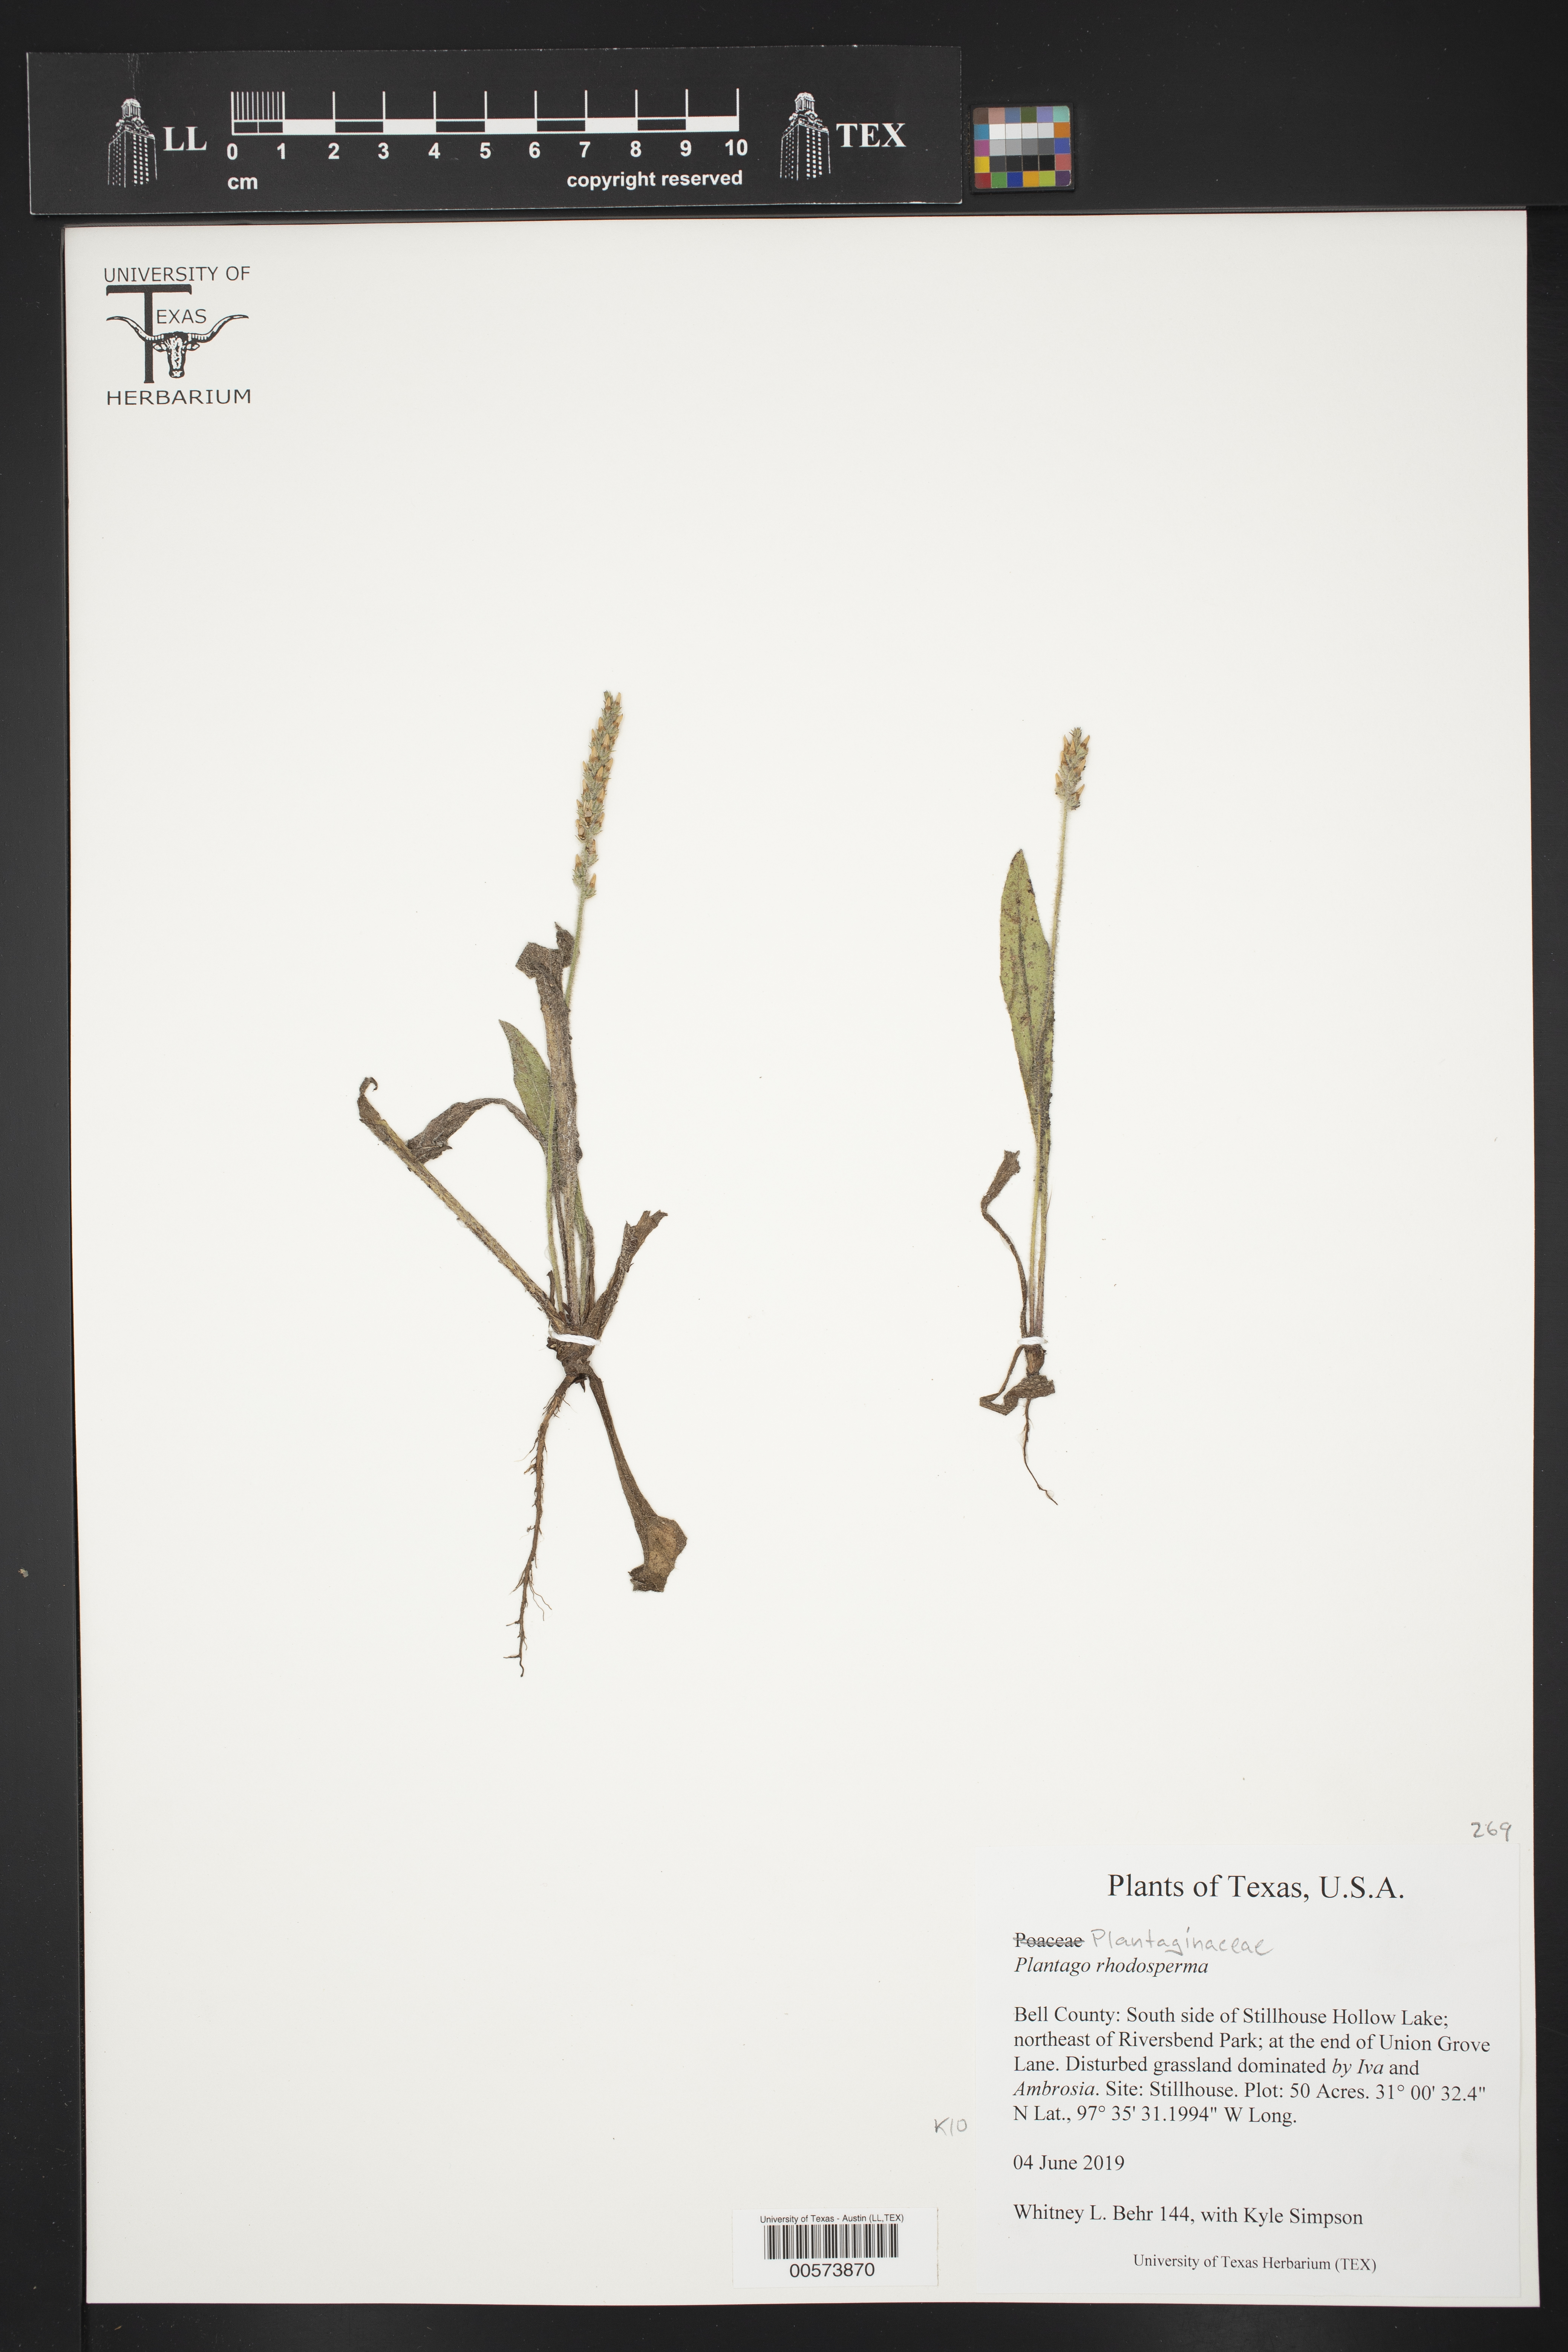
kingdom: Plantae
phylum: Tracheophyta
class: Magnoliopsida
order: Lamiales
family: Plantaginaceae
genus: Plantago
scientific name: Plantago rhodosperma
